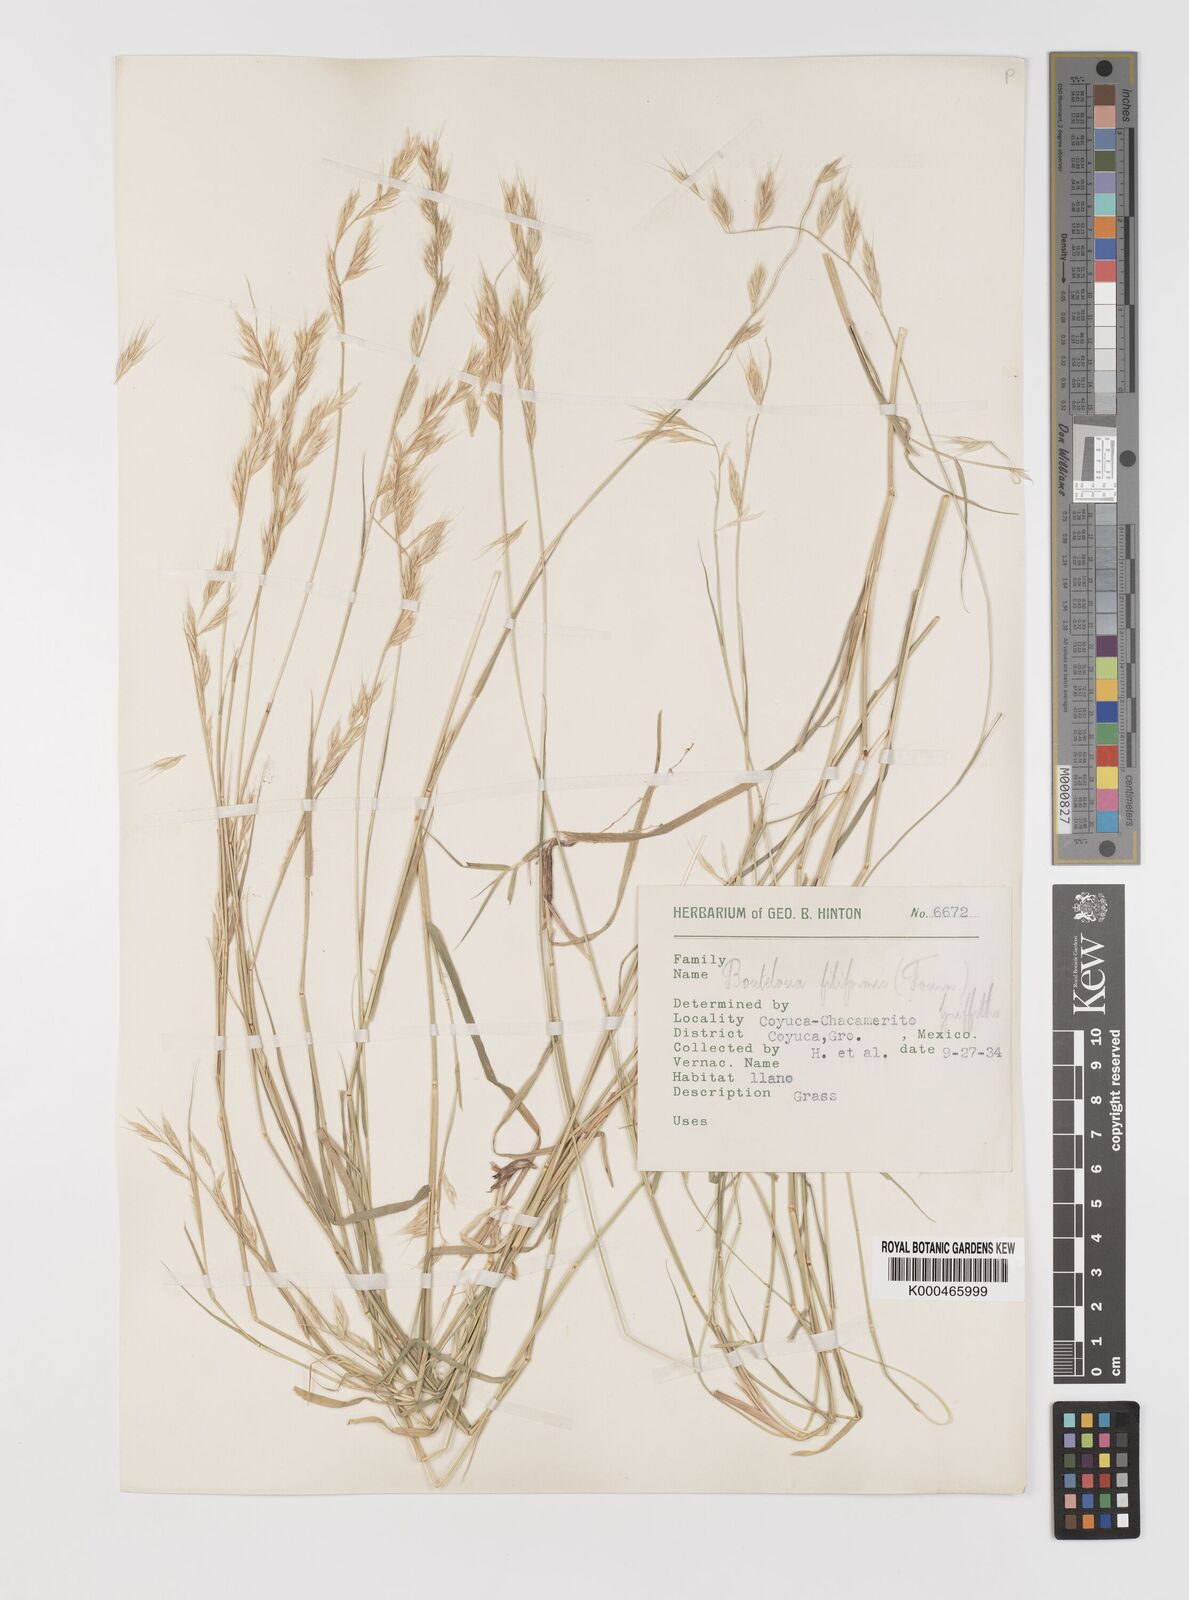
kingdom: Plantae
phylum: Tracheophyta
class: Liliopsida
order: Poales
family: Poaceae
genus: Bouteloua
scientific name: Bouteloua repens
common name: Slender grama
